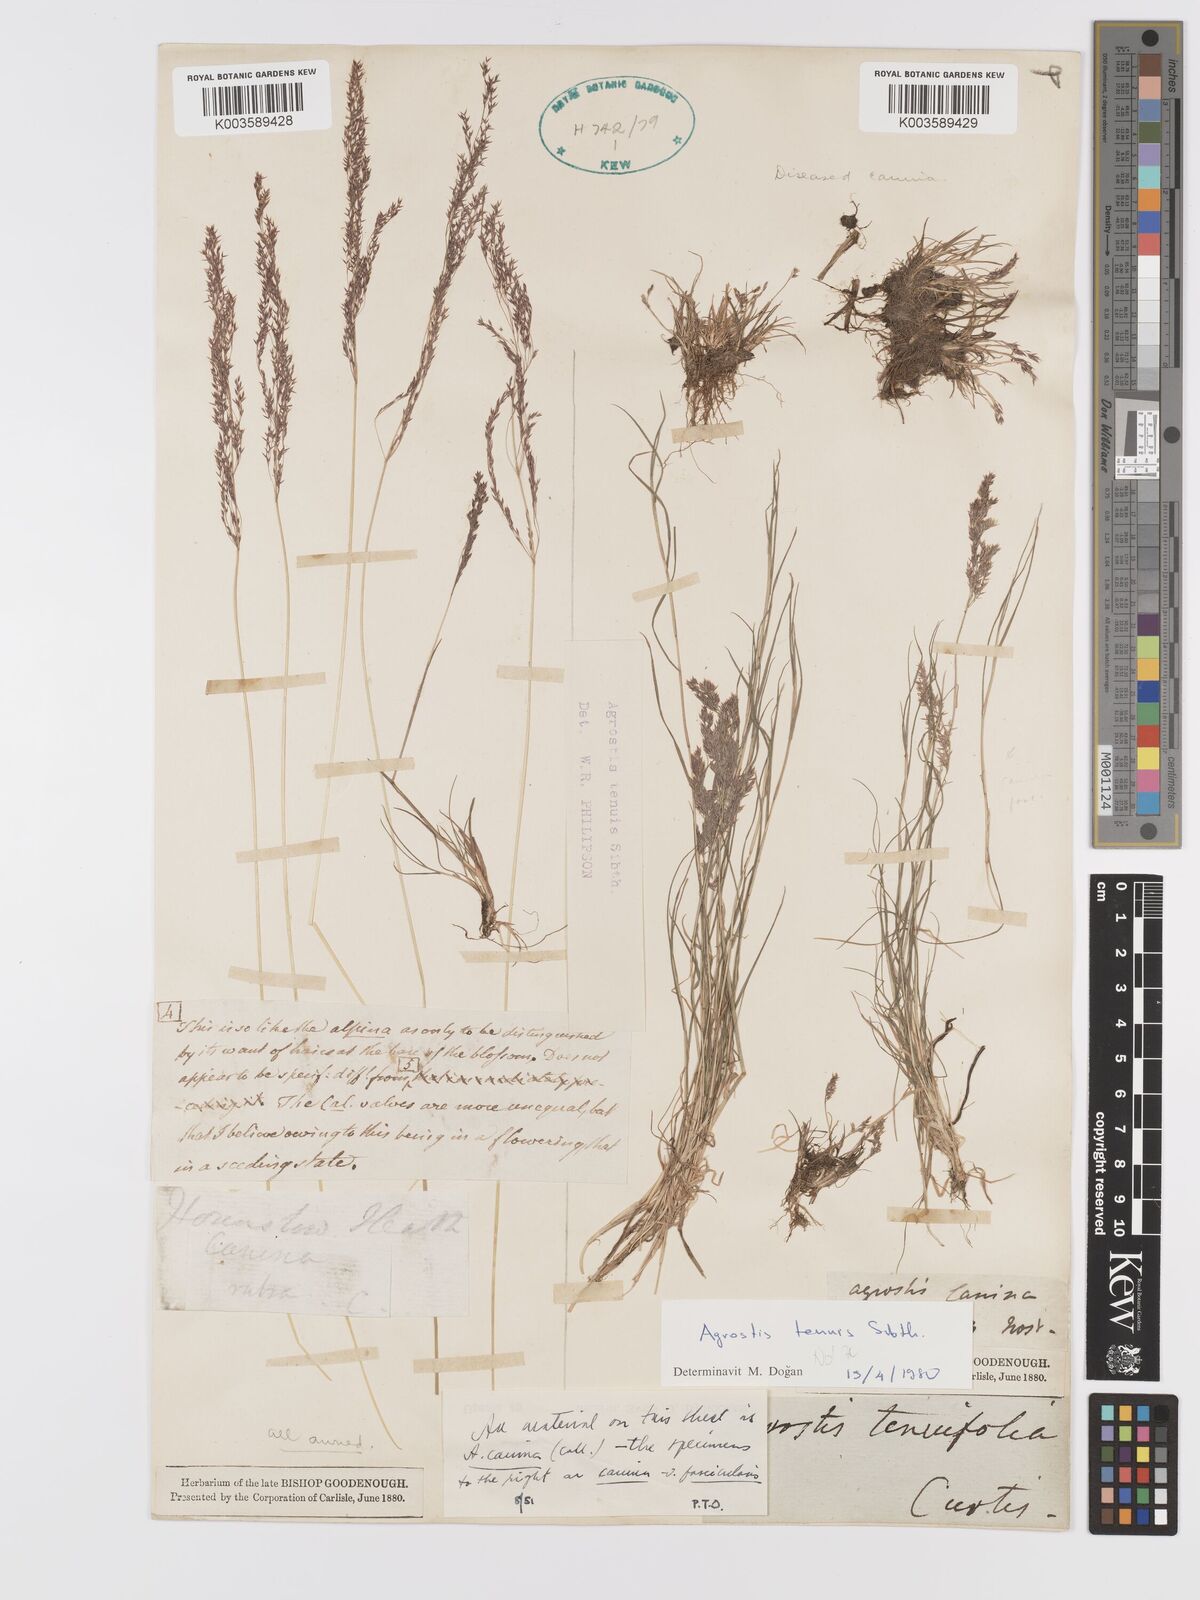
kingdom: Plantae
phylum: Tracheophyta
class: Liliopsida
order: Poales
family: Poaceae
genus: Agrostis
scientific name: Agrostis canina
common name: Velvet bent
